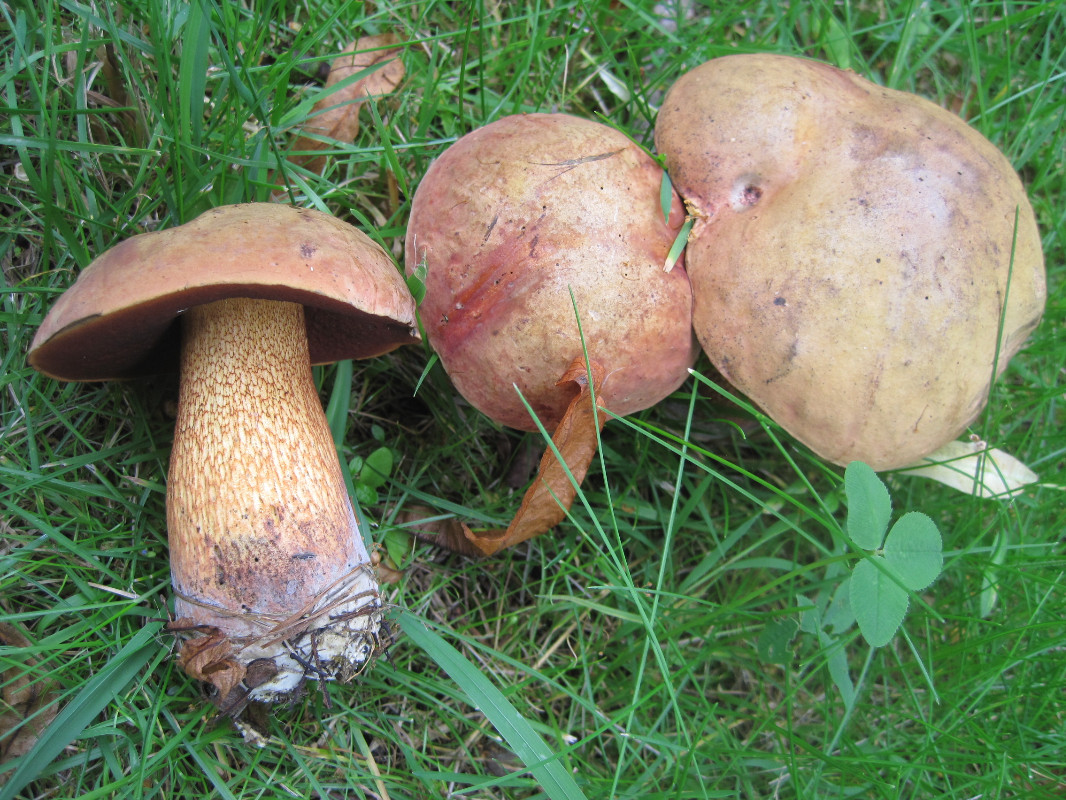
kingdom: Fungi
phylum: Basidiomycota
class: Agaricomycetes
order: Boletales
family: Boletaceae
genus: Suillellus
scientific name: Suillellus luridus
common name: netstokket indigorørhat
